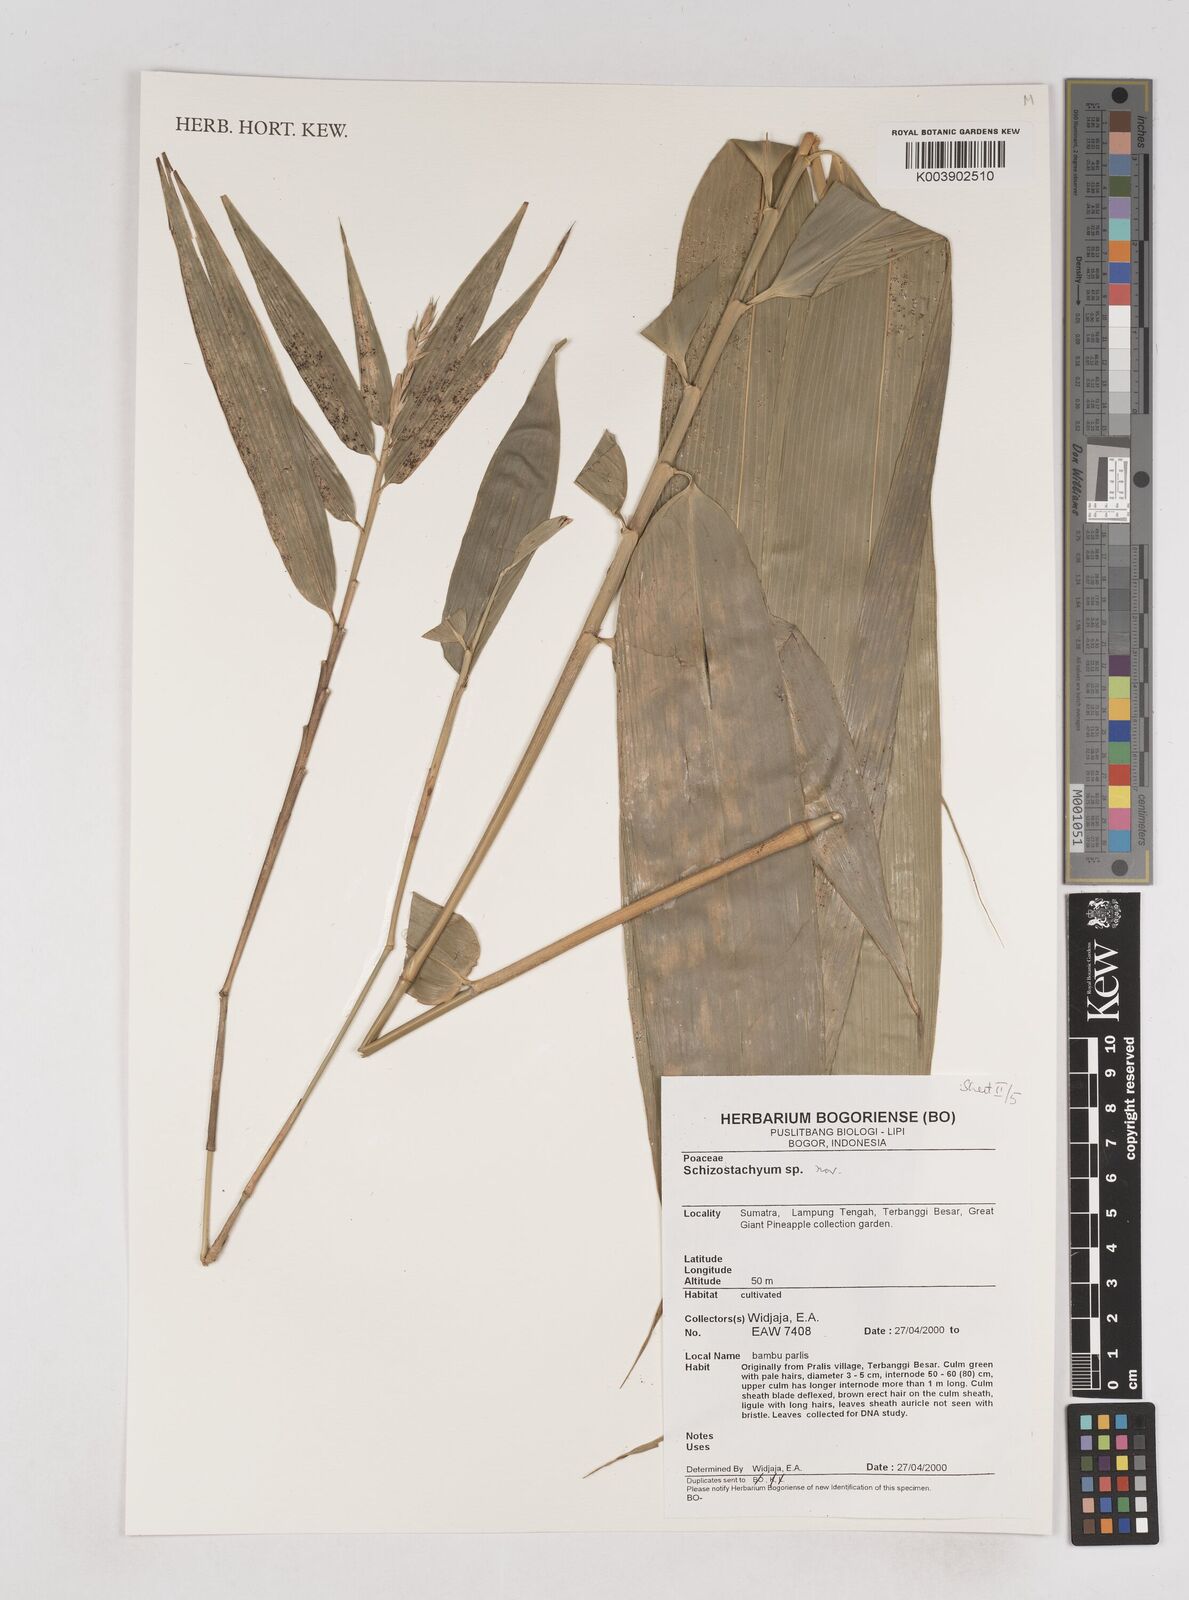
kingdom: Plantae
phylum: Tracheophyta
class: Liliopsida
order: Poales
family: Poaceae
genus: Schizostachyum
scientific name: Schizostachyum
